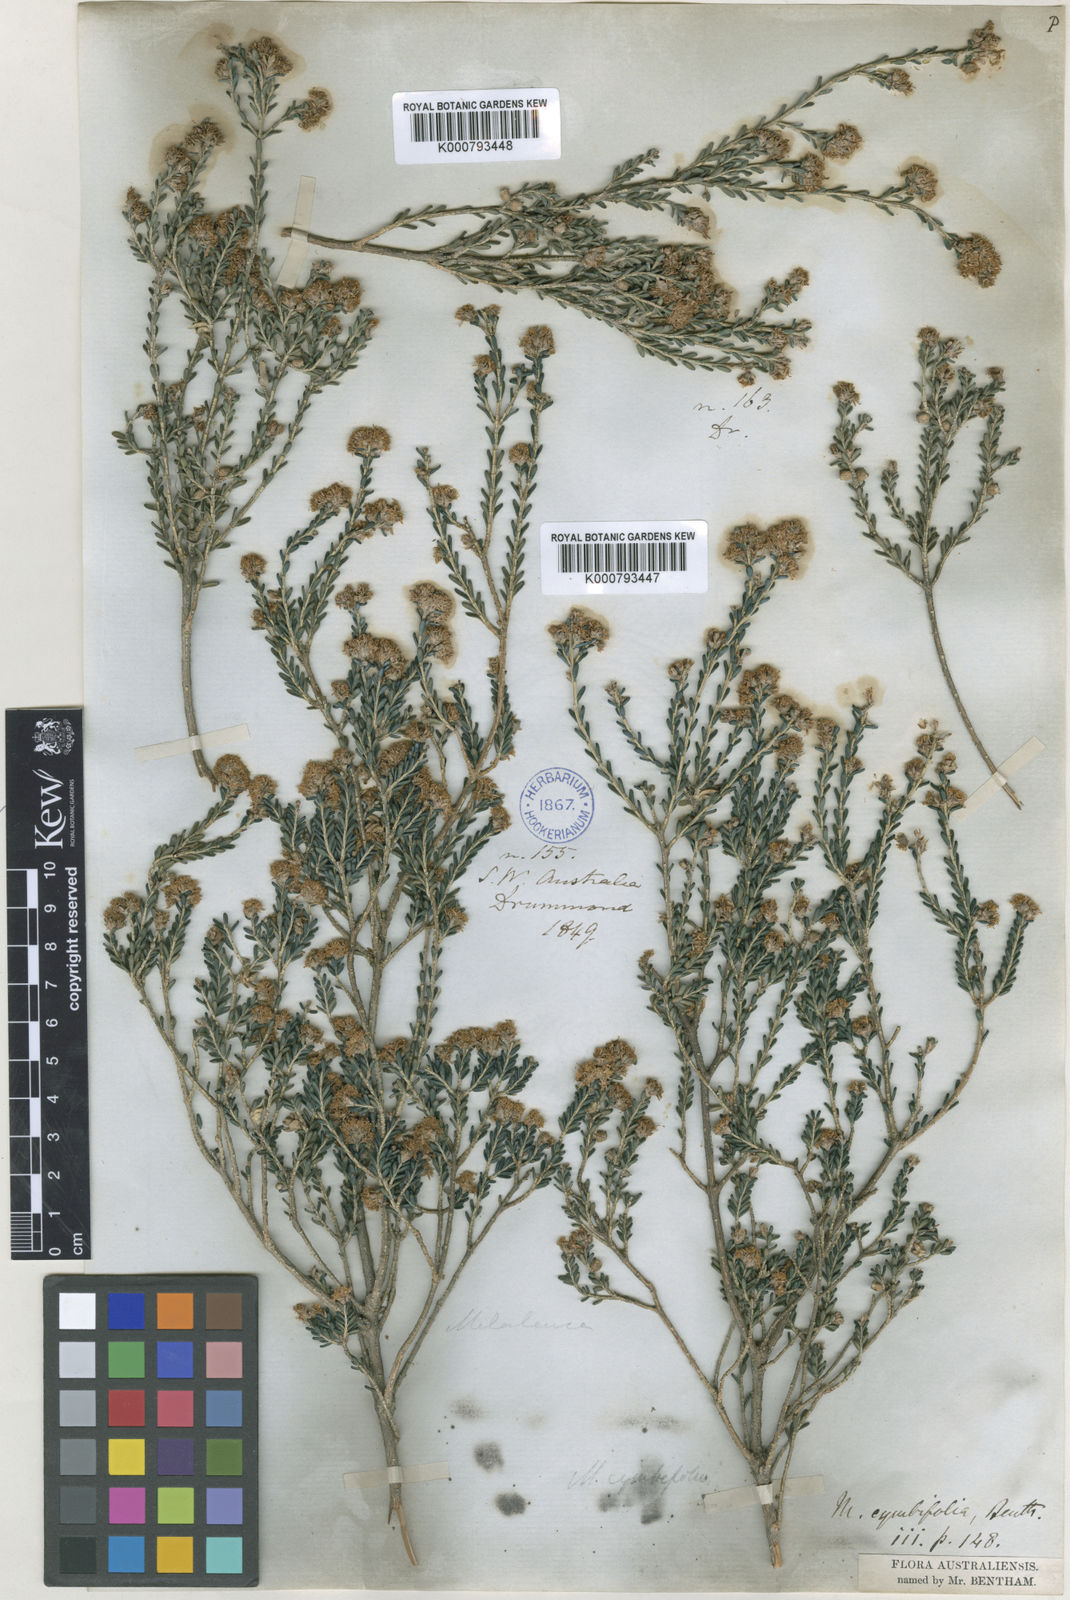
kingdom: Plantae
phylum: Tracheophyta
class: Magnoliopsida
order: Myrtales
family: Myrtaceae
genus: Melaleuca
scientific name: Melaleuca halmaturorum
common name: Coastal paper-bark
